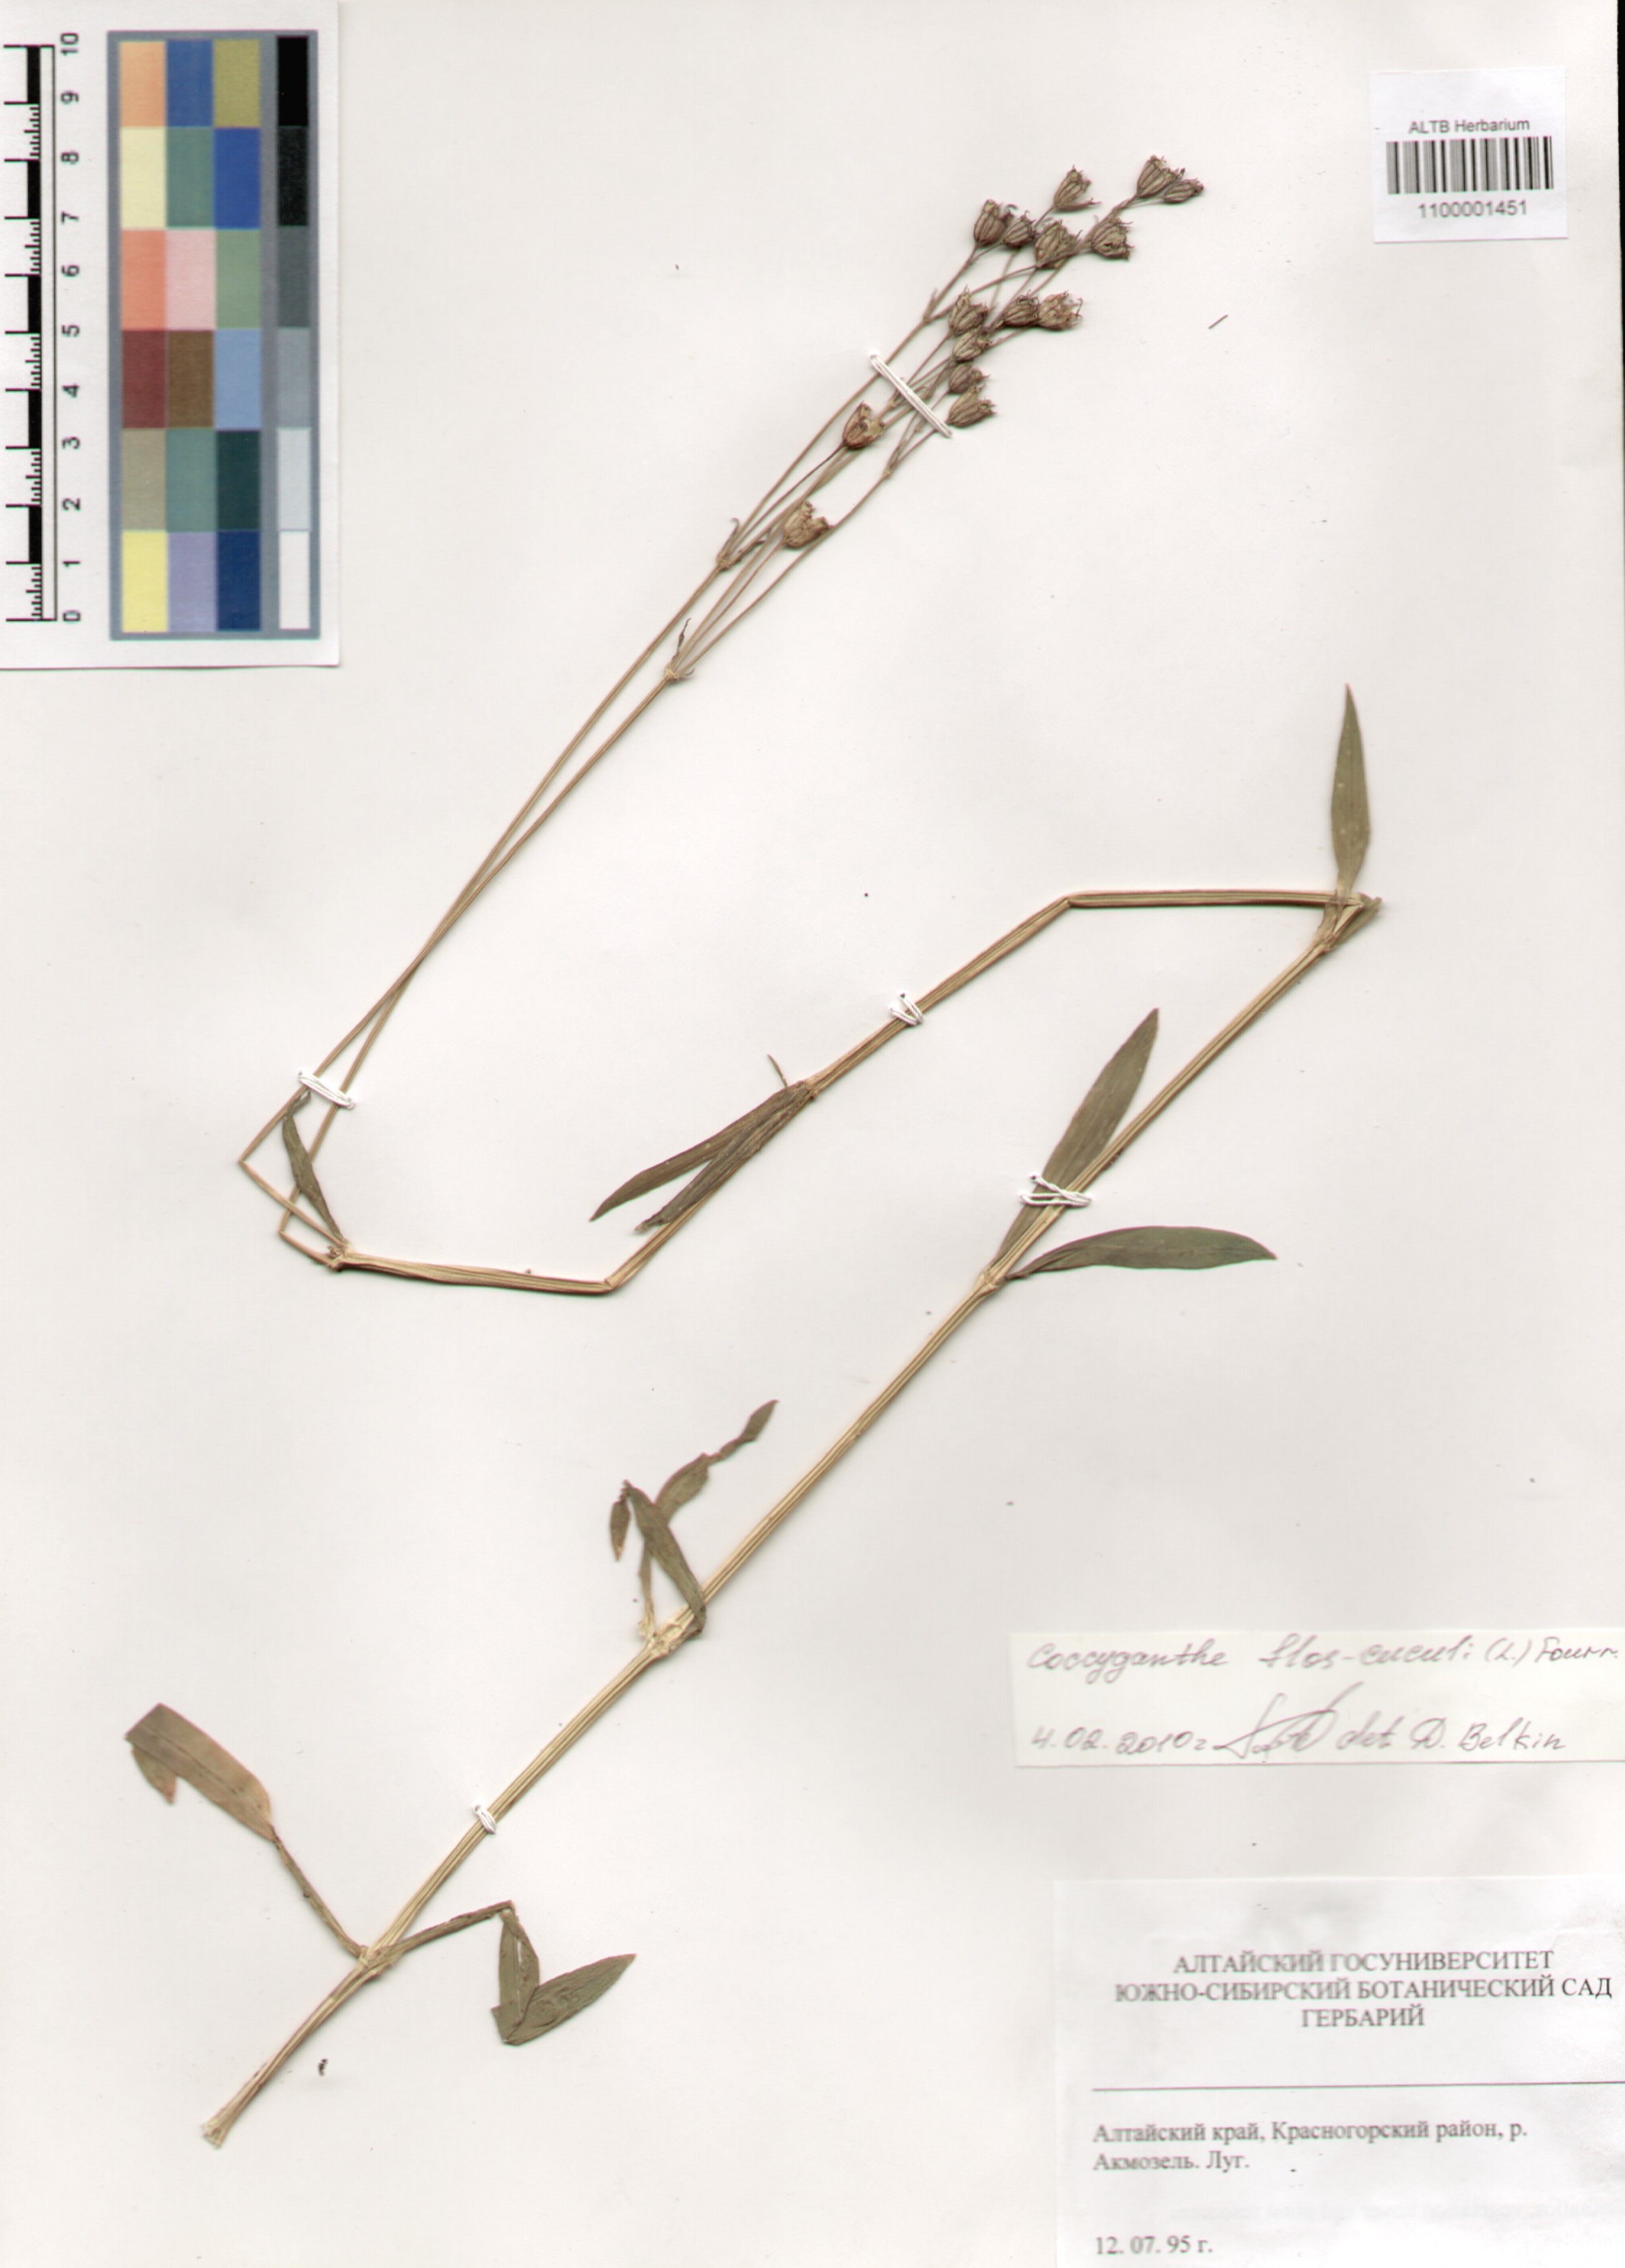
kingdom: Plantae
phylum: Tracheophyta
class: Magnoliopsida
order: Caryophyllales
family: Caryophyllaceae
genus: Silene
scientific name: Silene flos-cuculi
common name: Ragged-robin
